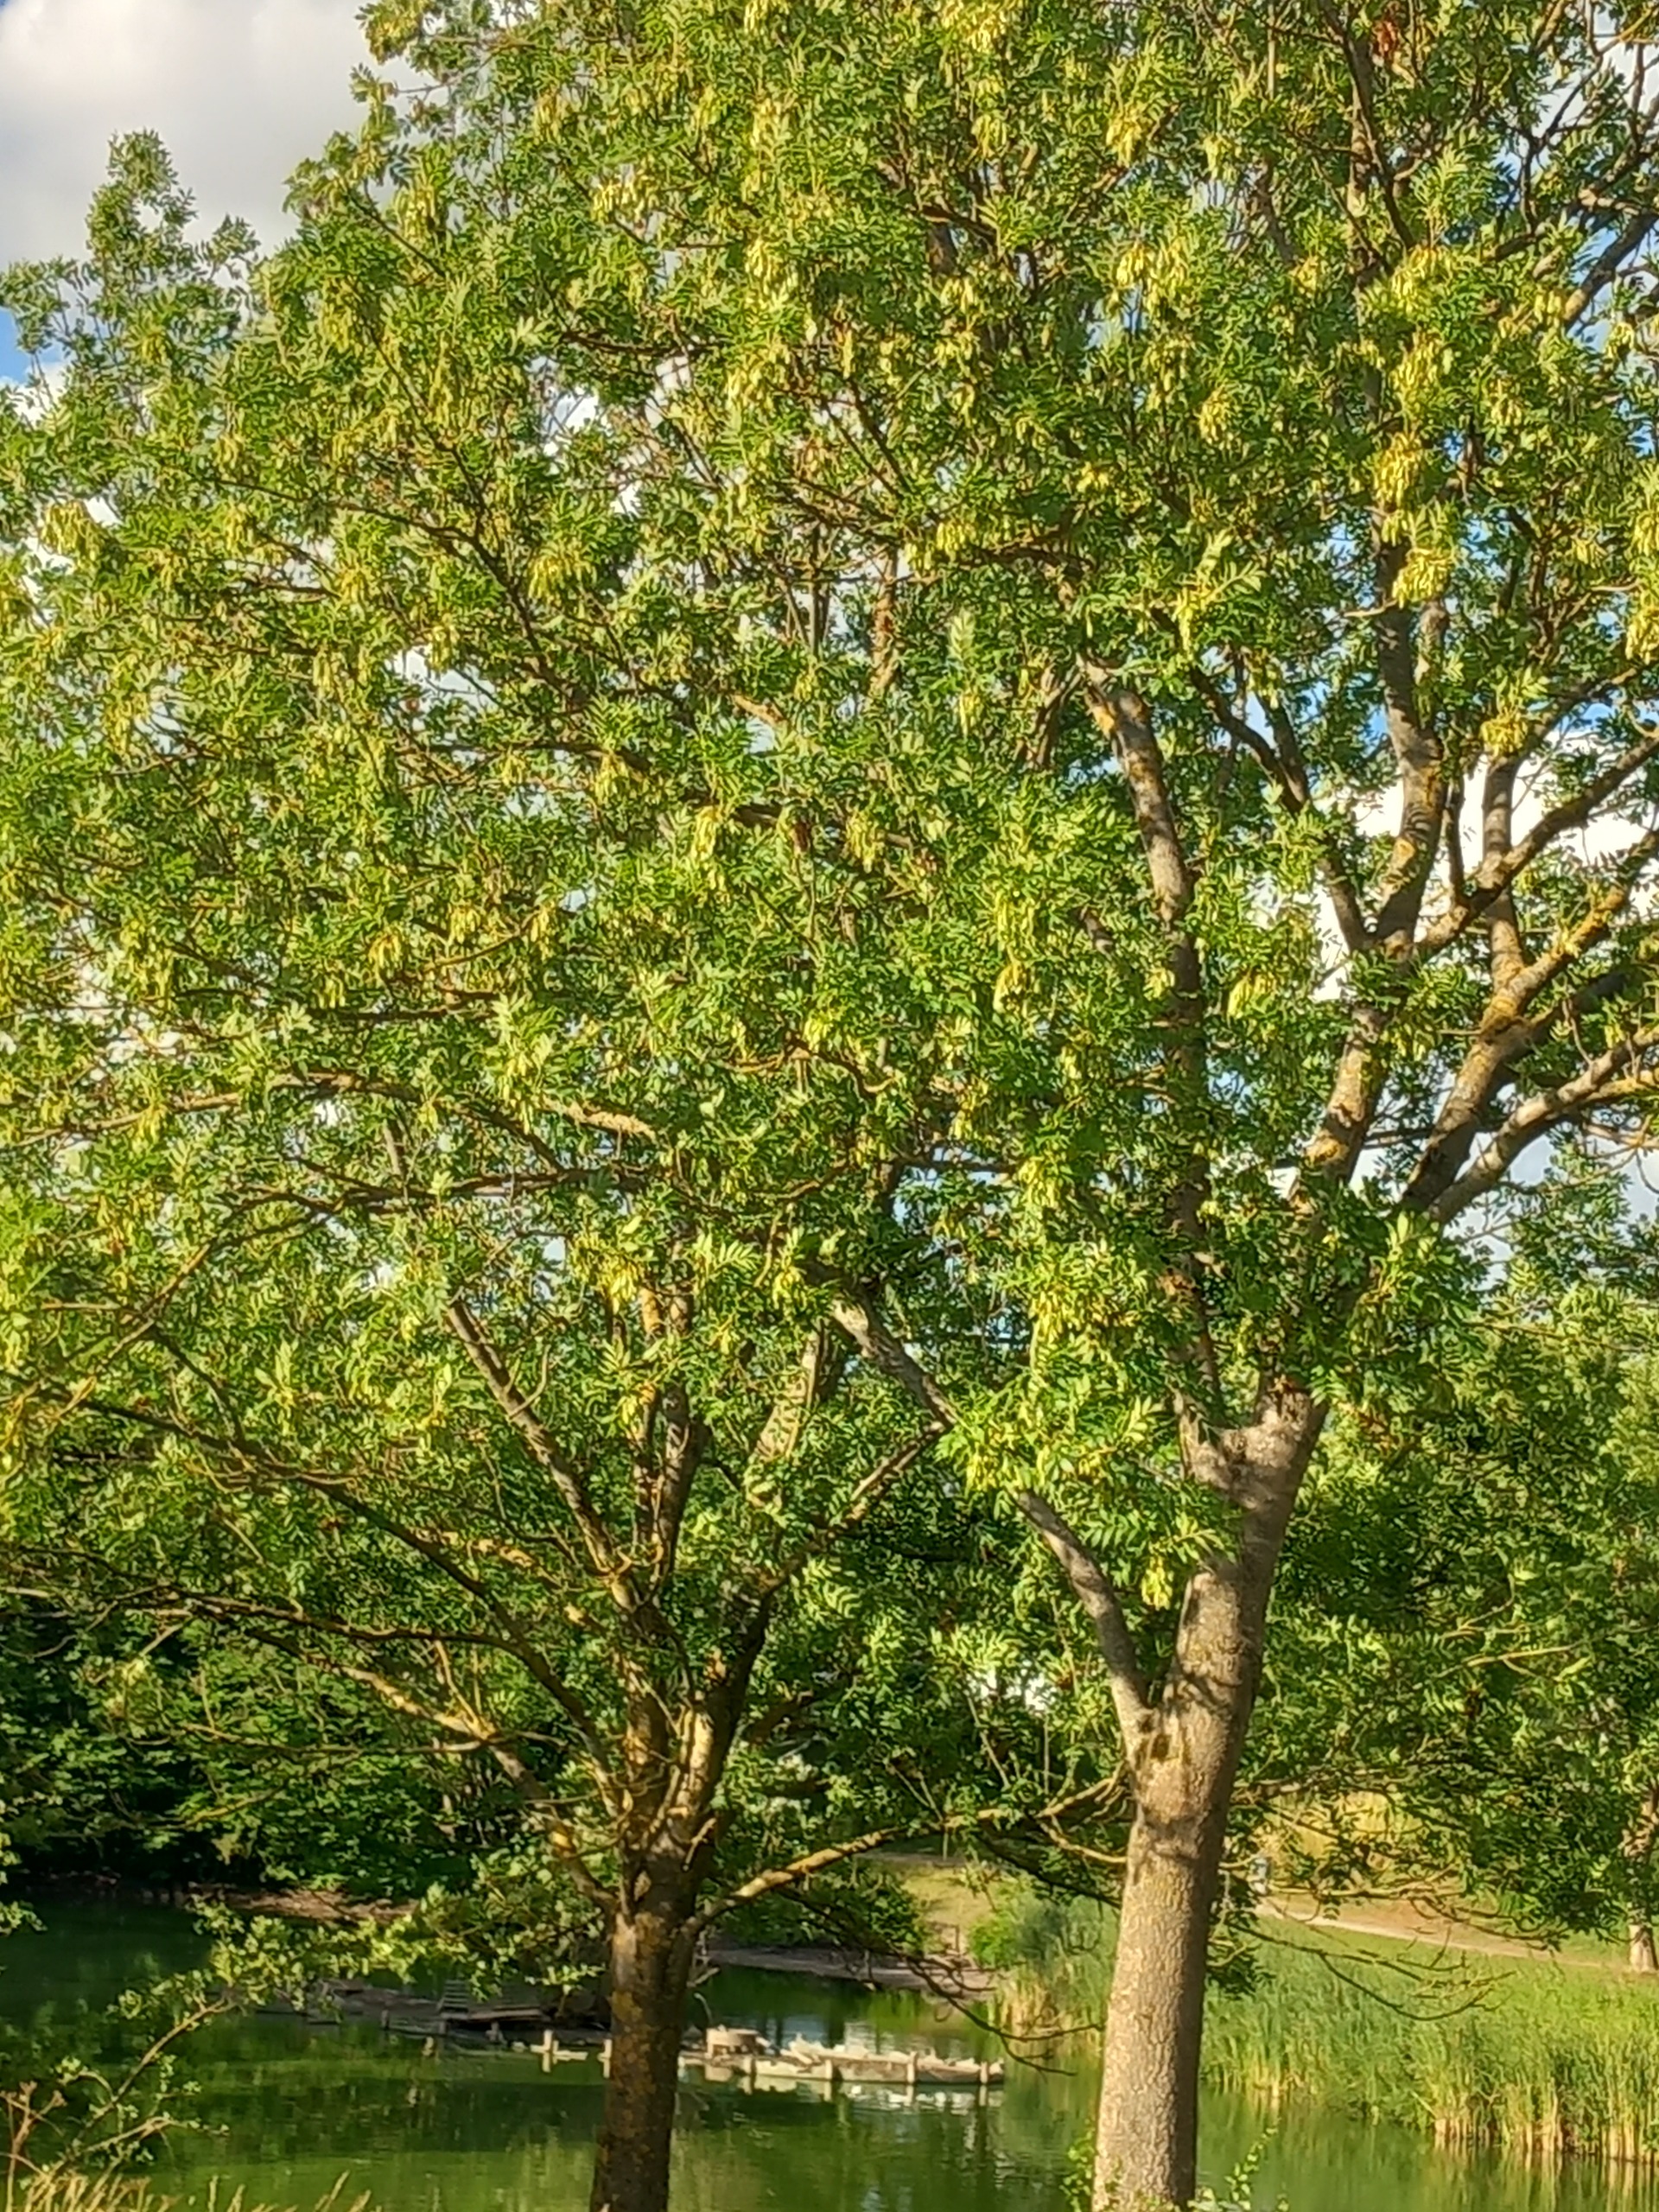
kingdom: Plantae
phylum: Tracheophyta
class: Magnoliopsida
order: Lamiales
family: Oleaceae
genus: Fraxinus
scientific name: Fraxinus excelsior
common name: Ask
